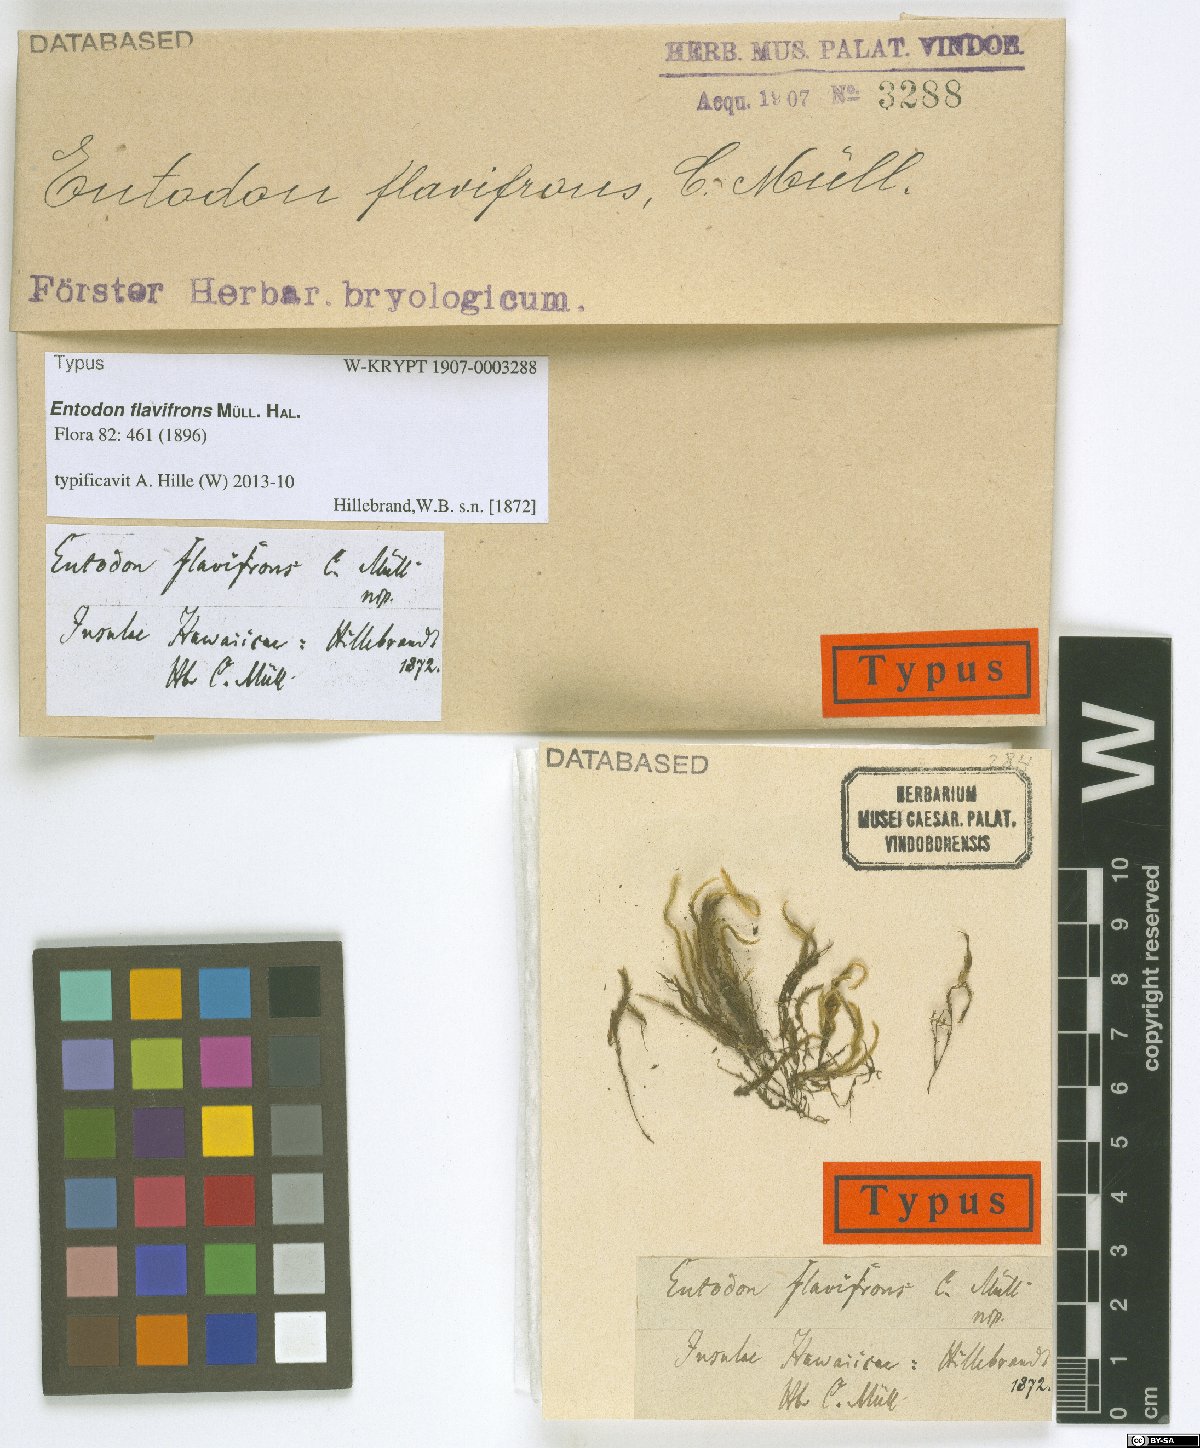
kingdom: Plantae
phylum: Bryophyta
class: Bryopsida
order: Hypnales
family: Entodontaceae
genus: Entodon
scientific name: Entodon plicatus
